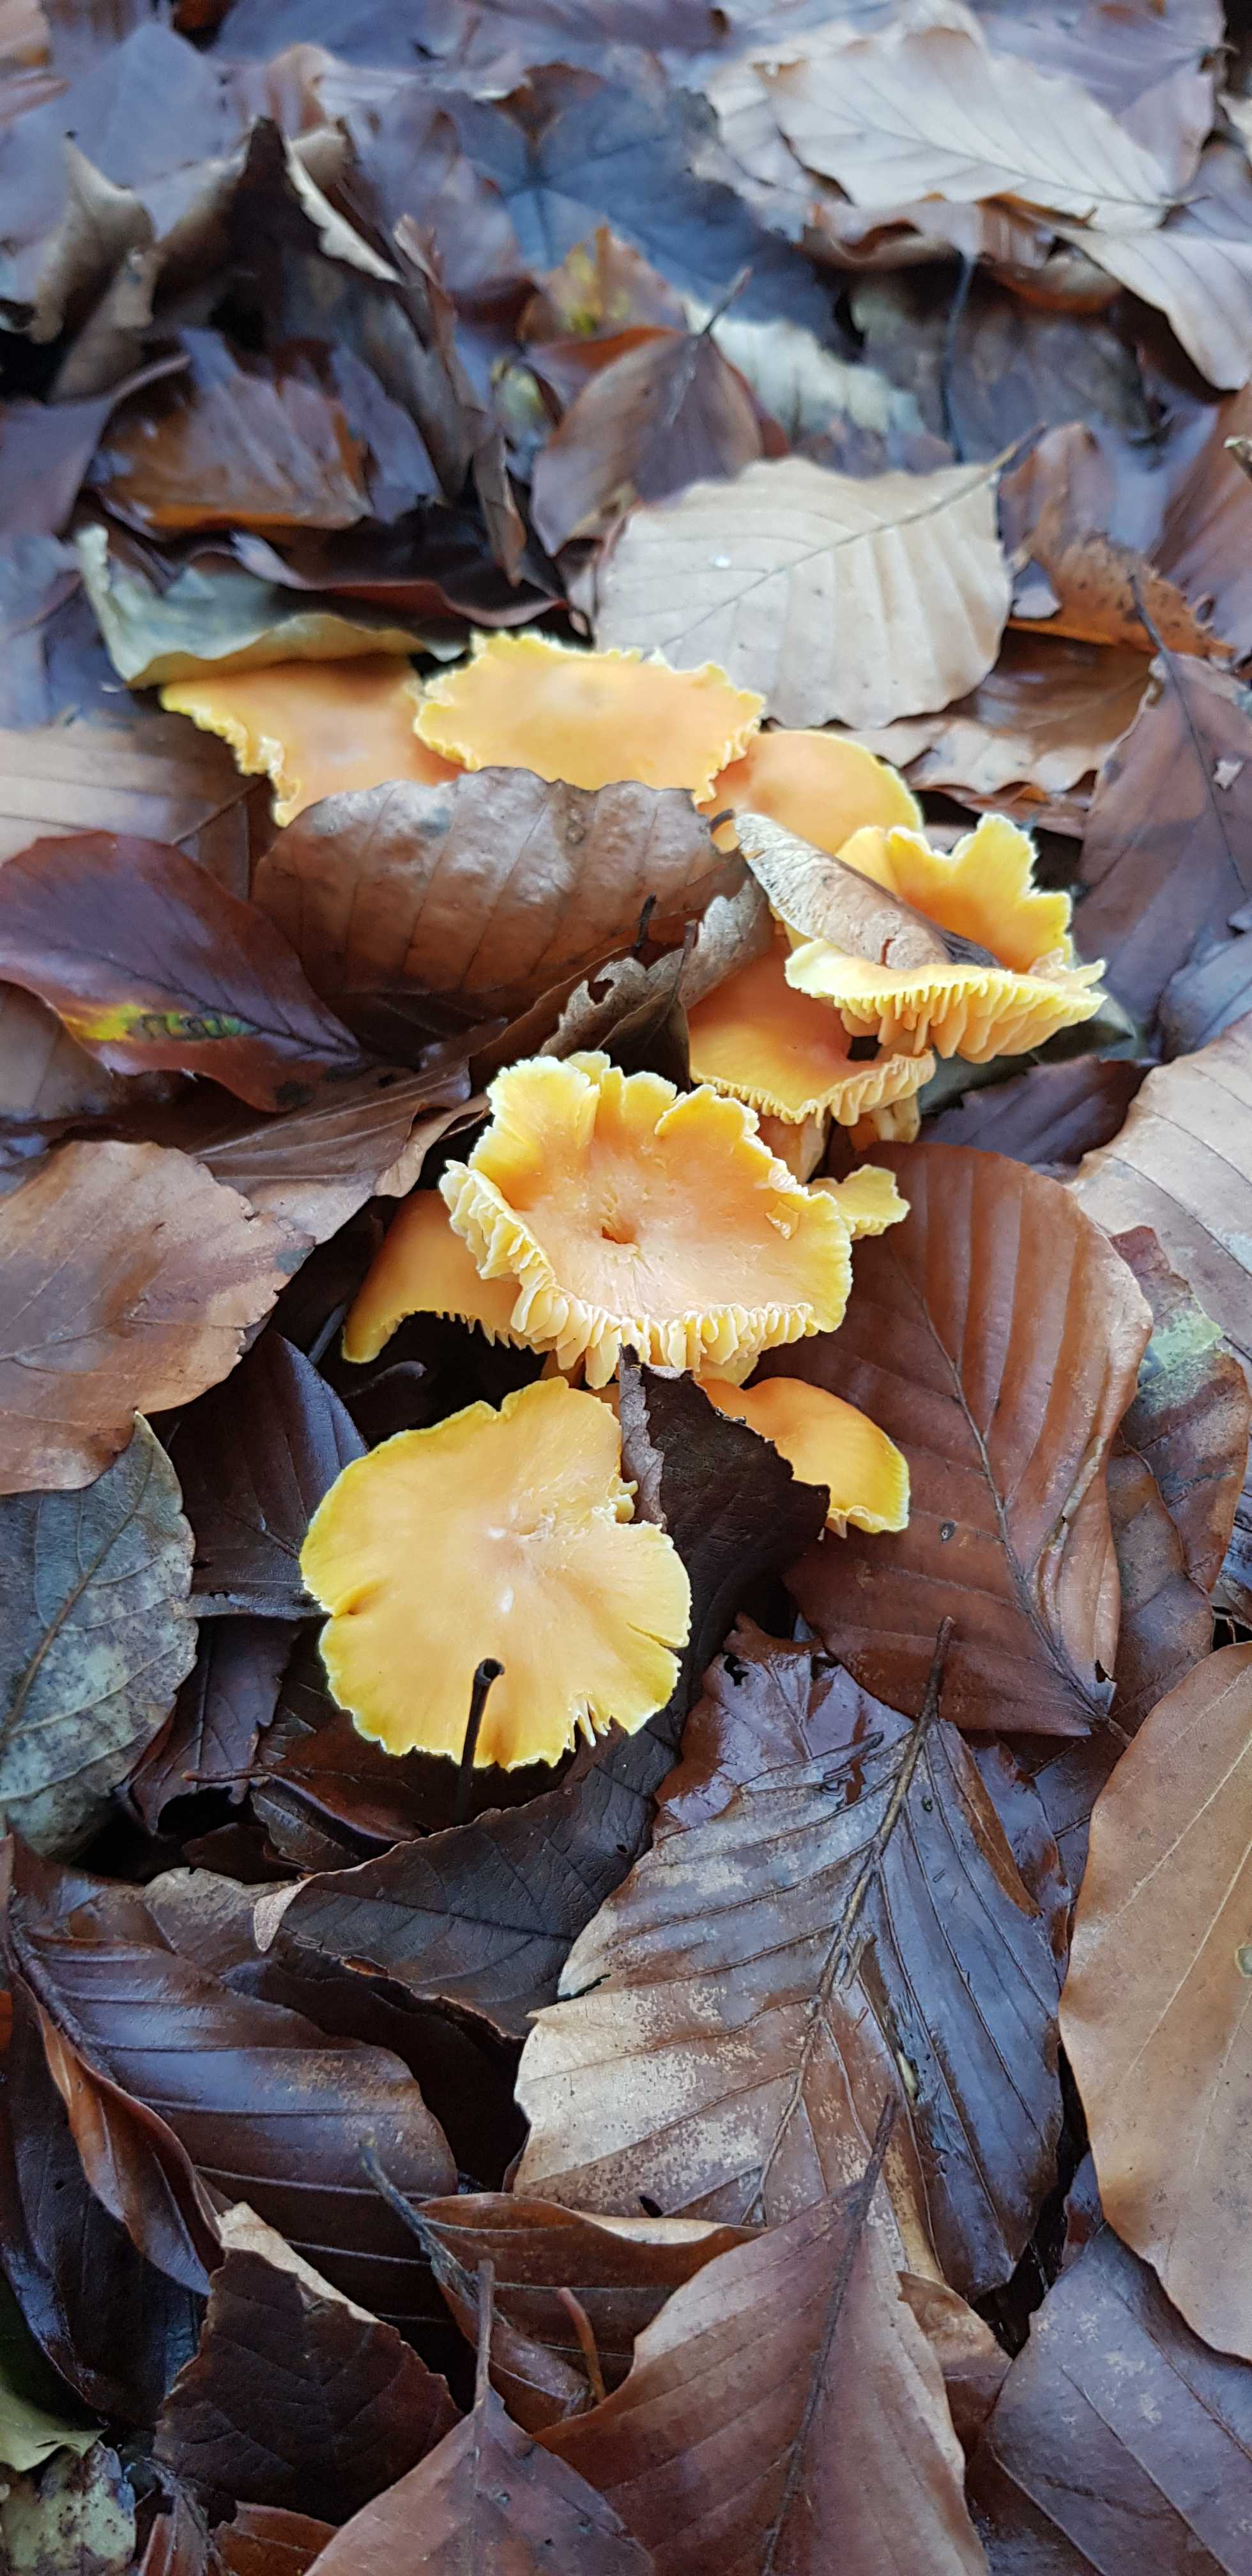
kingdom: Fungi
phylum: Basidiomycota
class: Agaricomycetes
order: Agaricales
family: Hygrophoraceae
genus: Hygrocybe
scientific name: Hygrocybe
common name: vokshat
